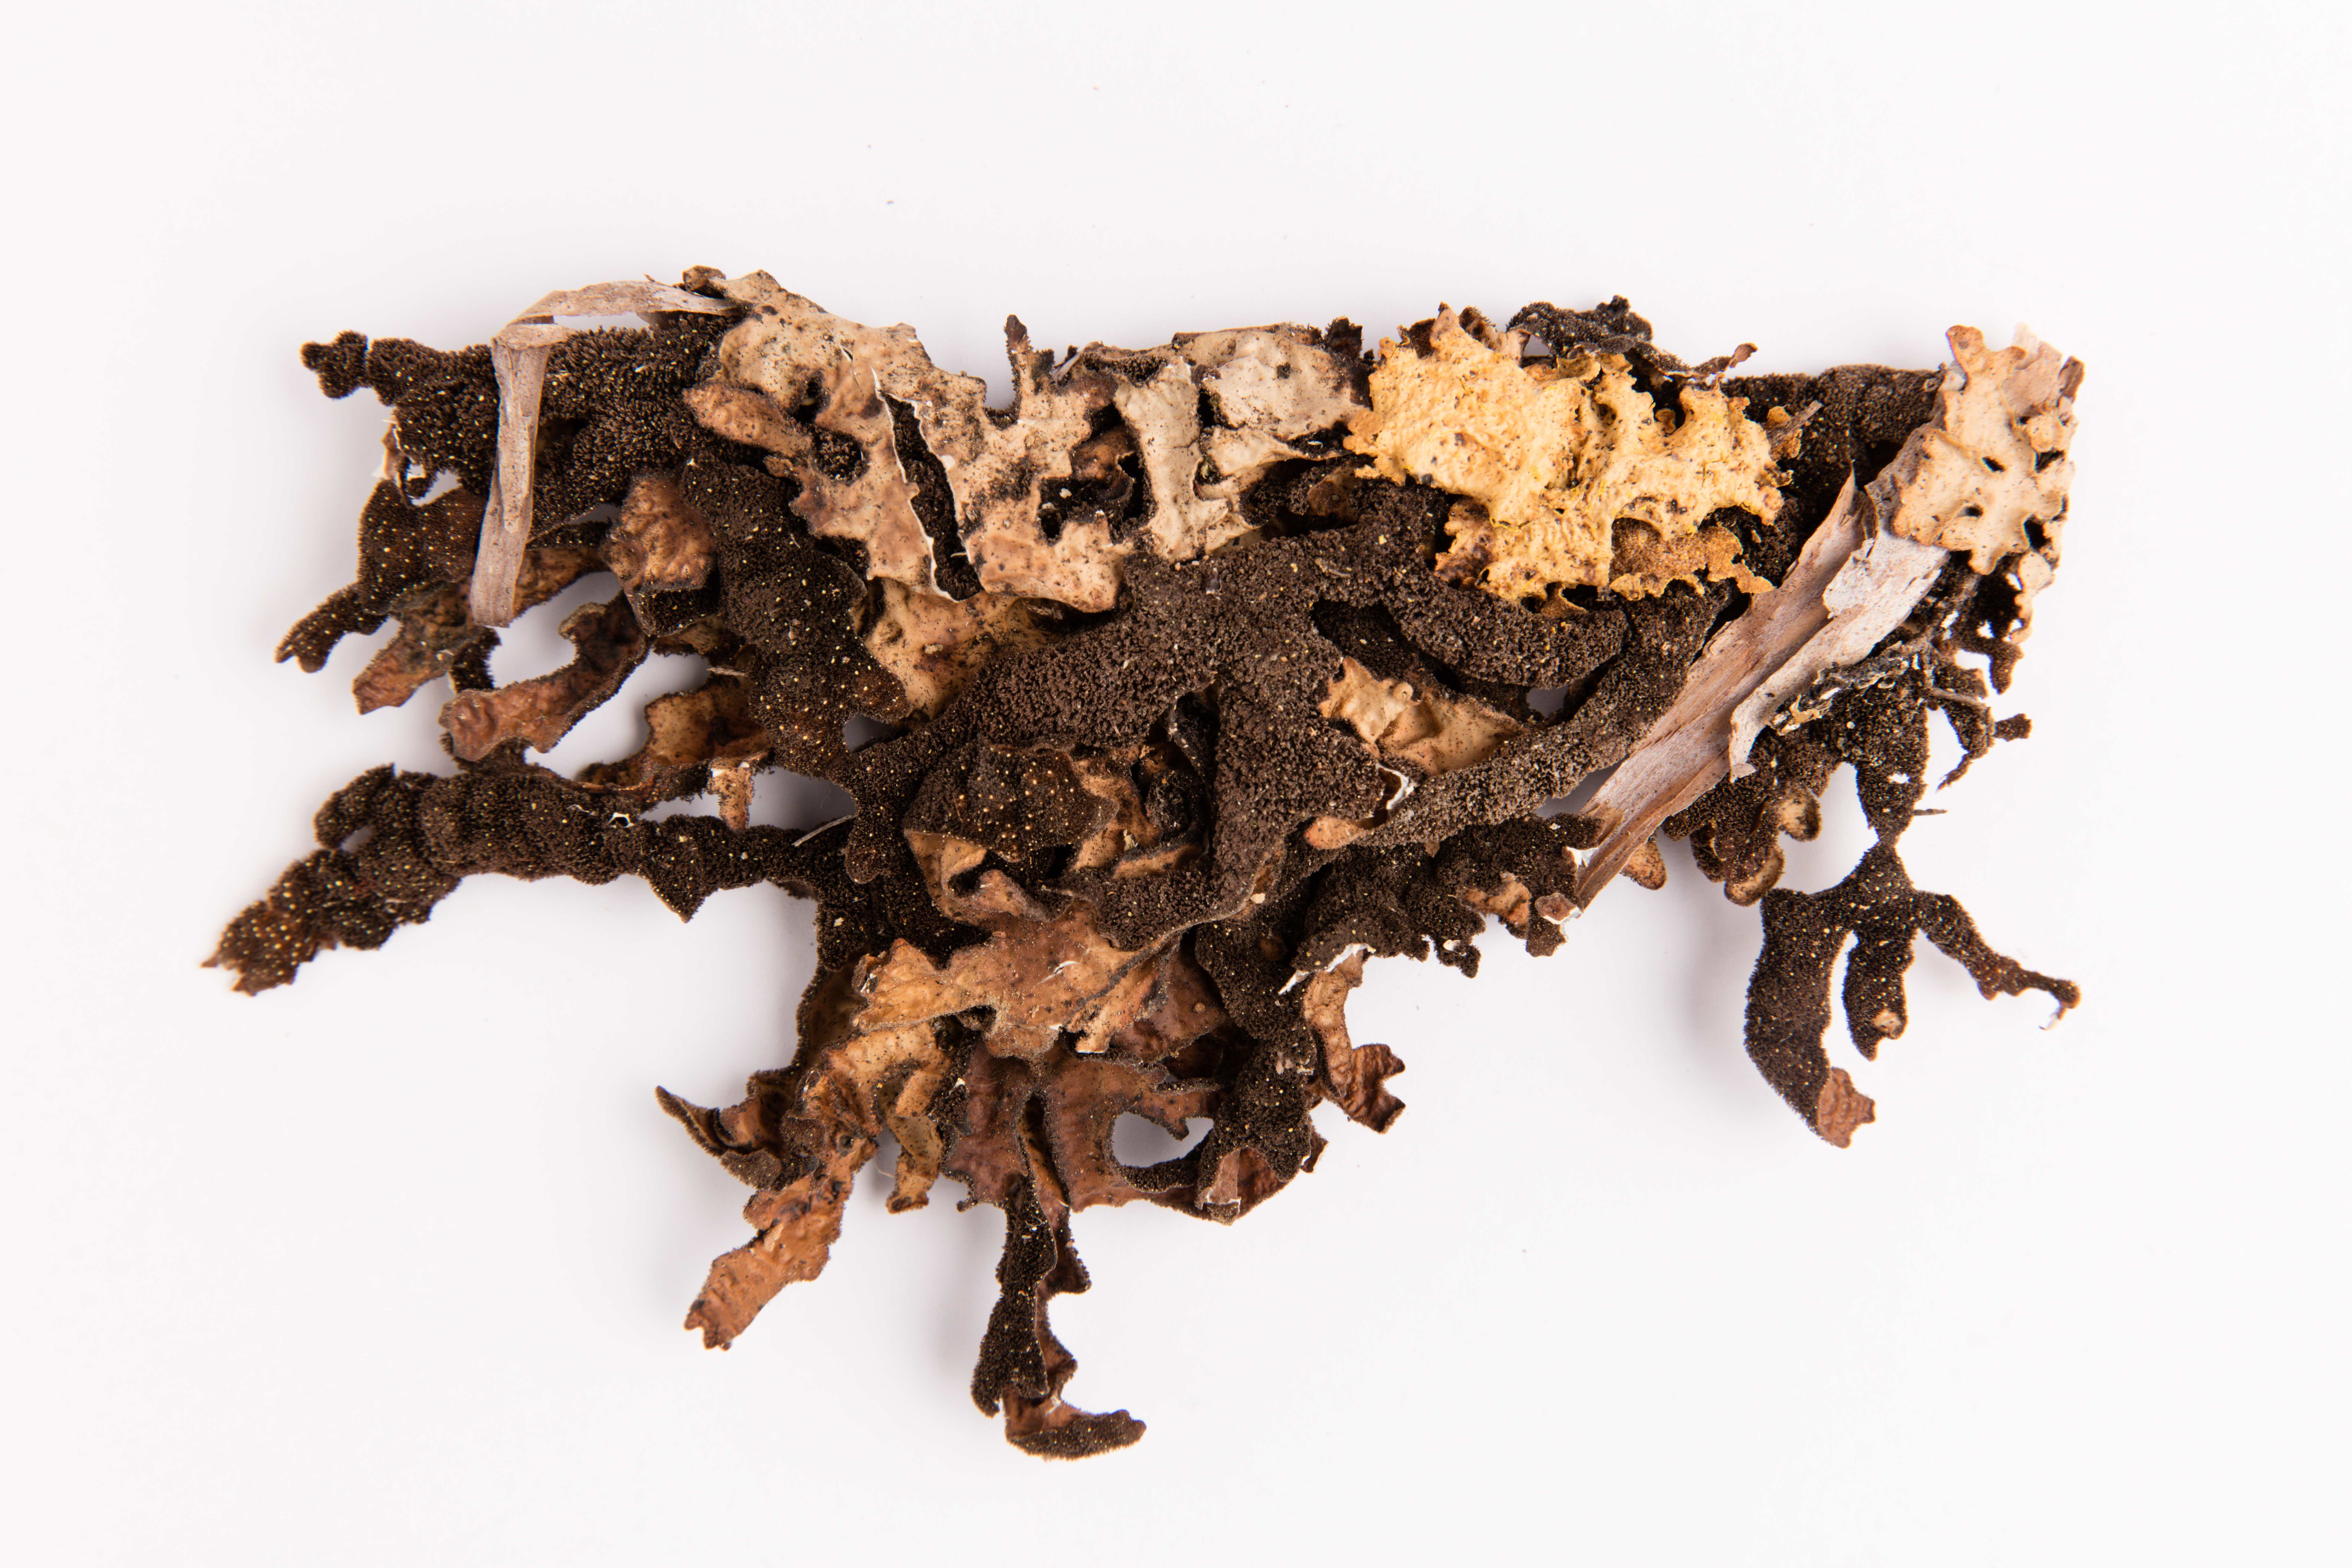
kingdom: Fungi
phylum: Ascomycota
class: Lecanoromycetes
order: Peltigerales
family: Lobariaceae
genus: Pseudocyphellaria
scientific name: Pseudocyphellaria crassa
